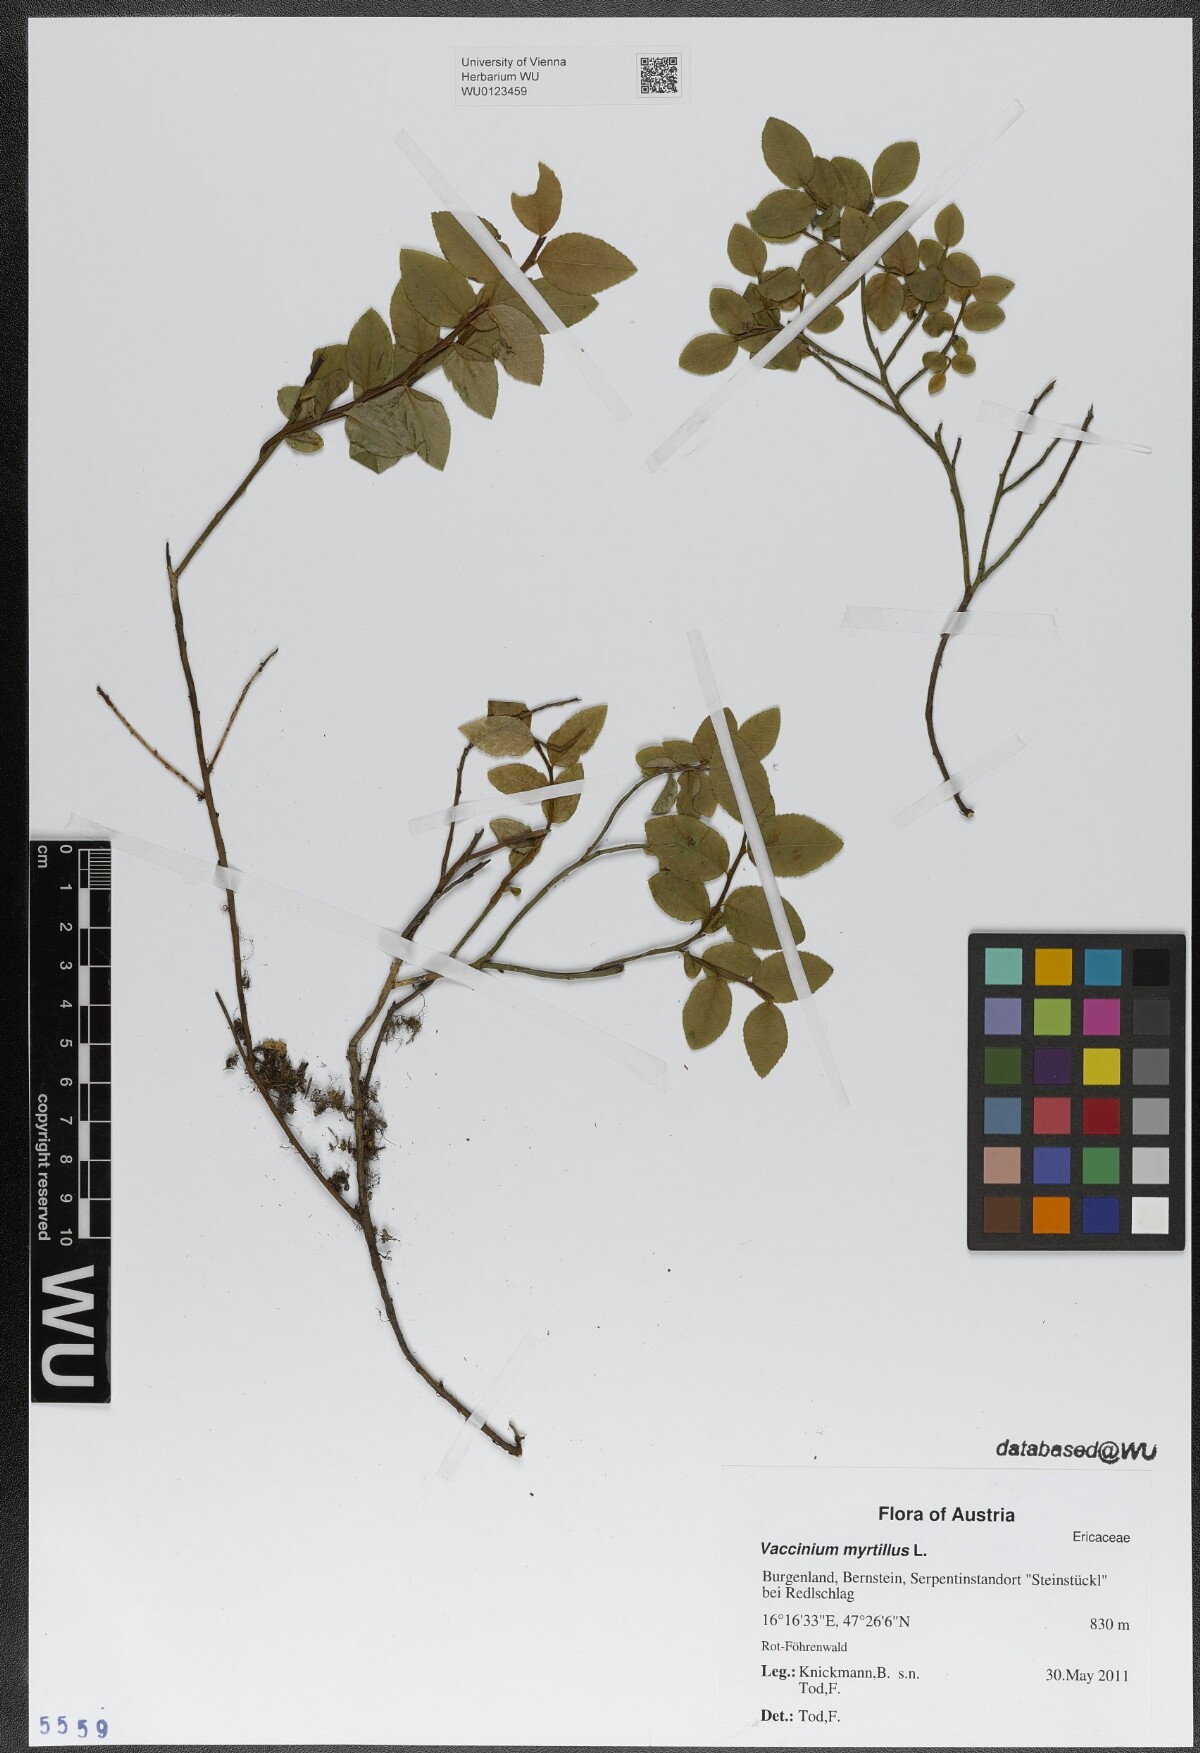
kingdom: Plantae
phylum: Tracheophyta
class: Magnoliopsida
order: Ericales
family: Ericaceae
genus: Vaccinium
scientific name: Vaccinium myrtillus
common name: Bilberry
